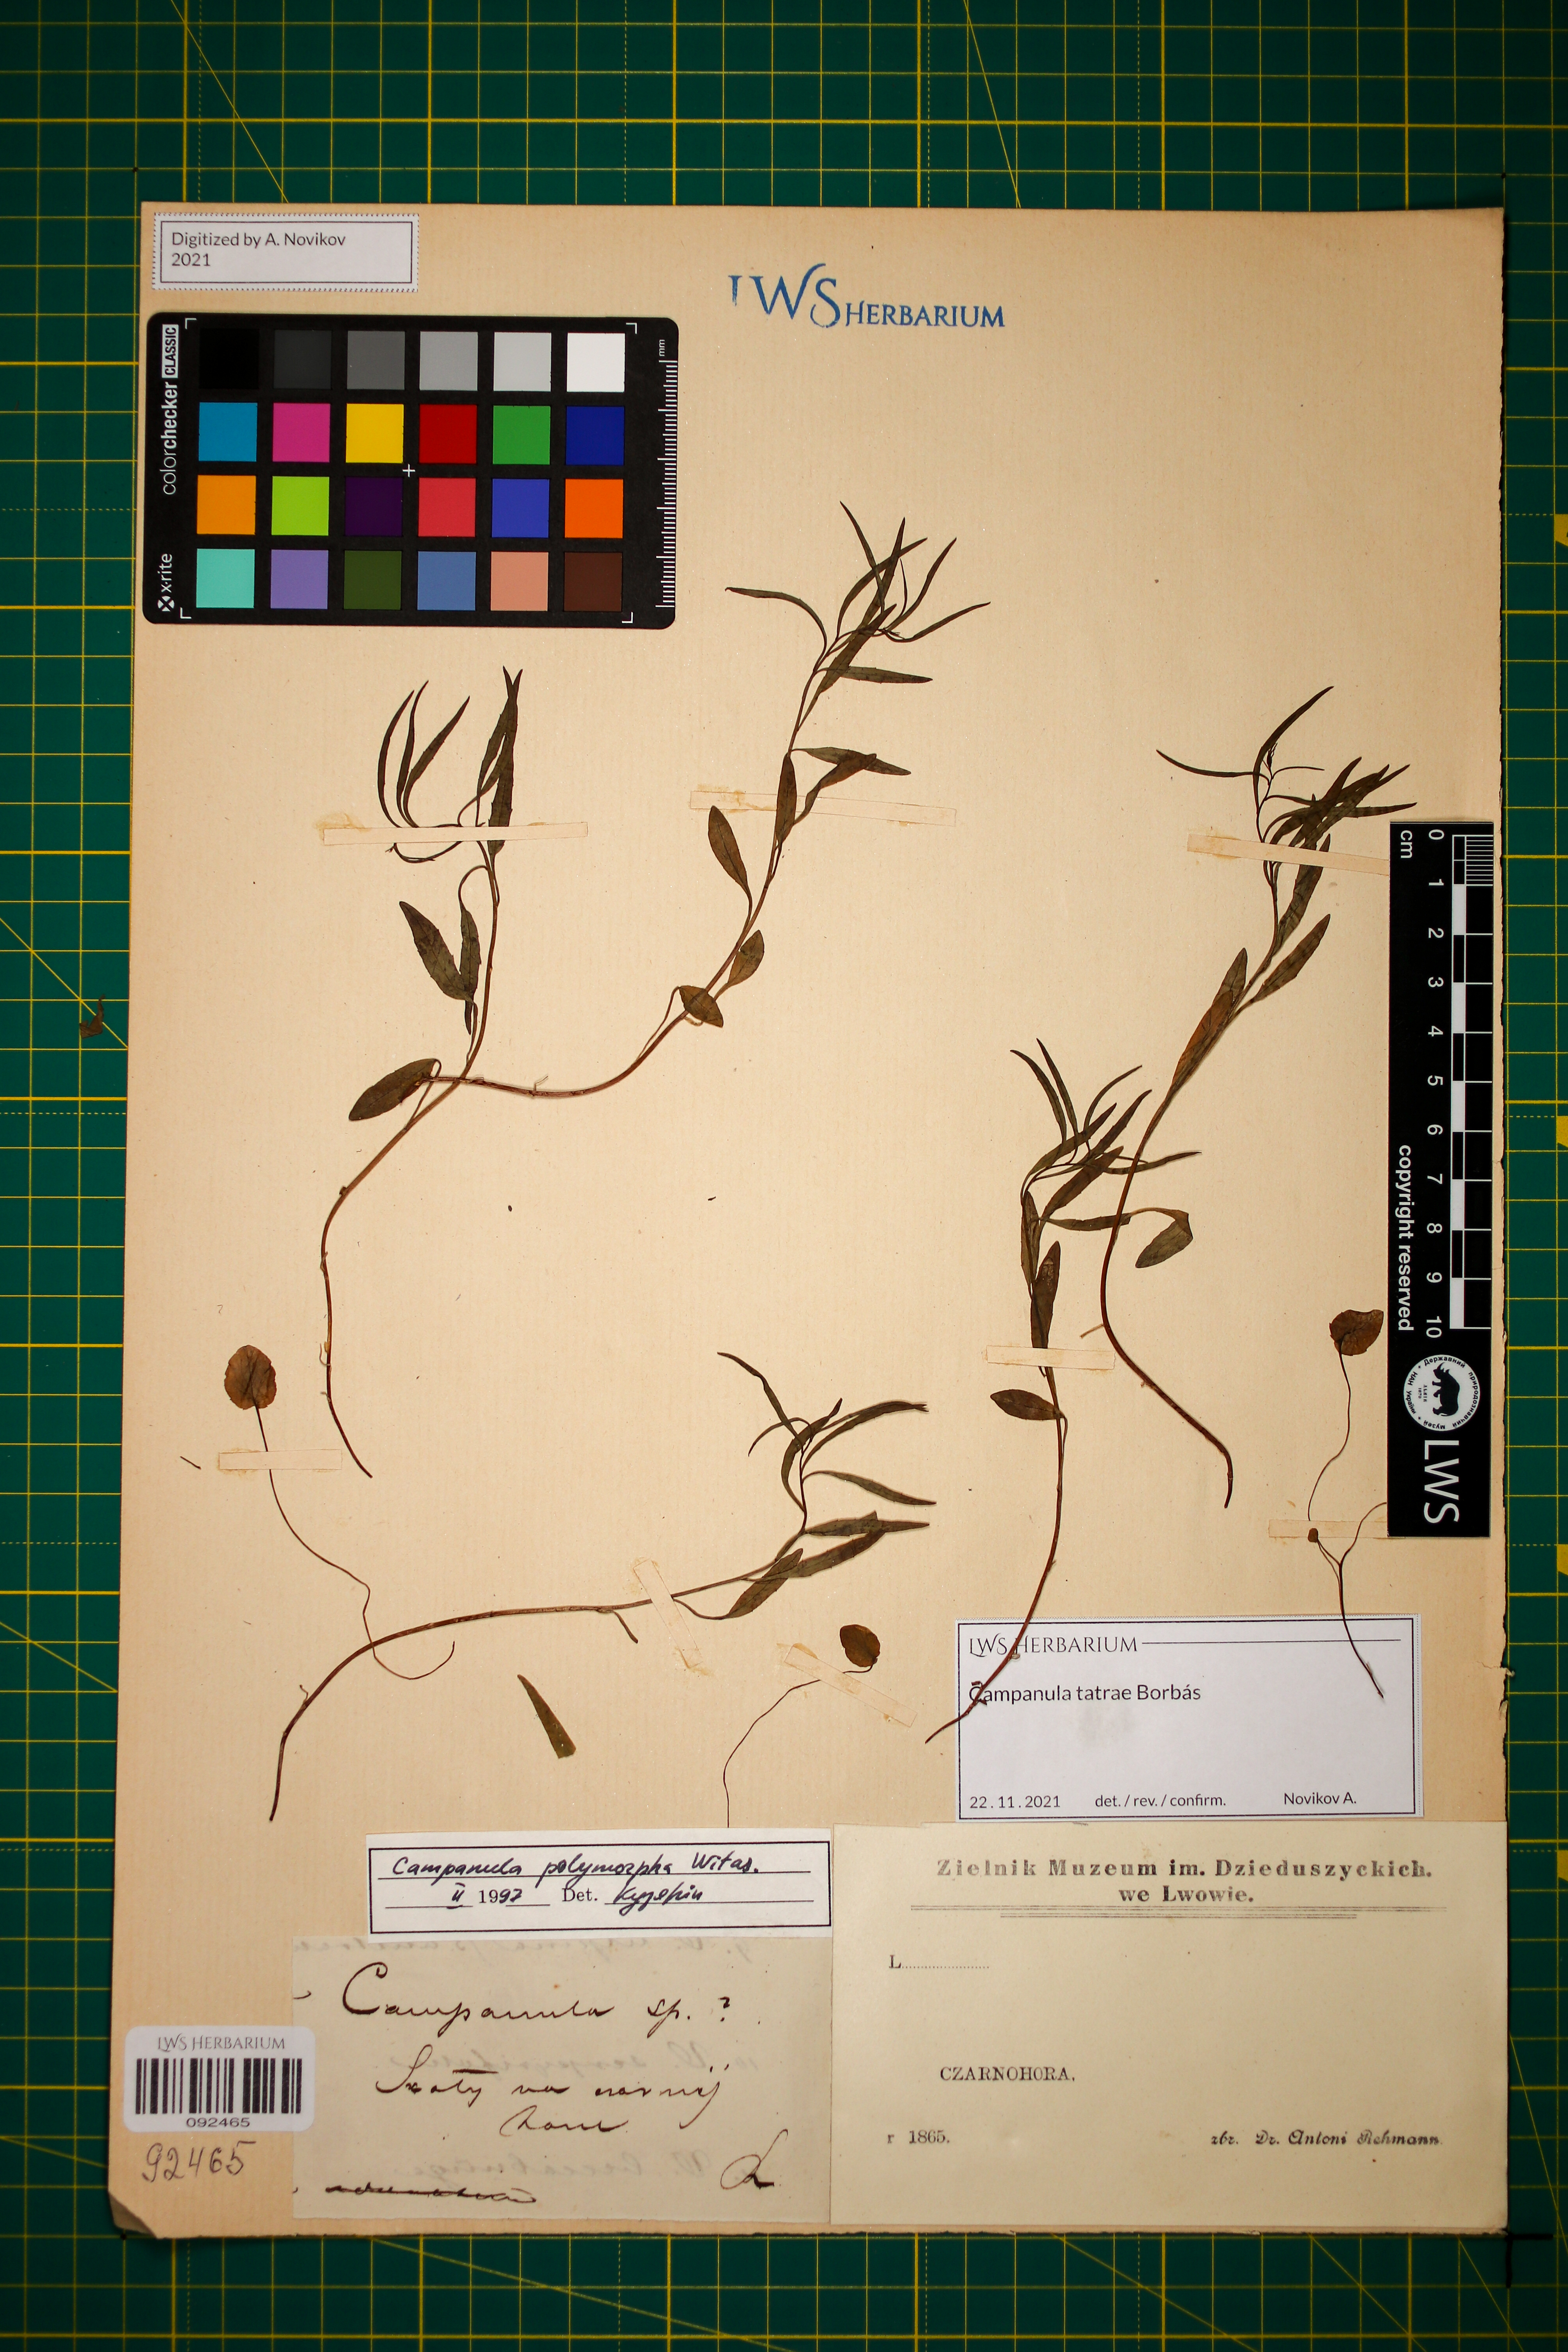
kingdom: Plantae
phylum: Tracheophyta
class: Magnoliopsida
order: Asterales
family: Campanulaceae
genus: Campanula
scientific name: Campanula tatrae
